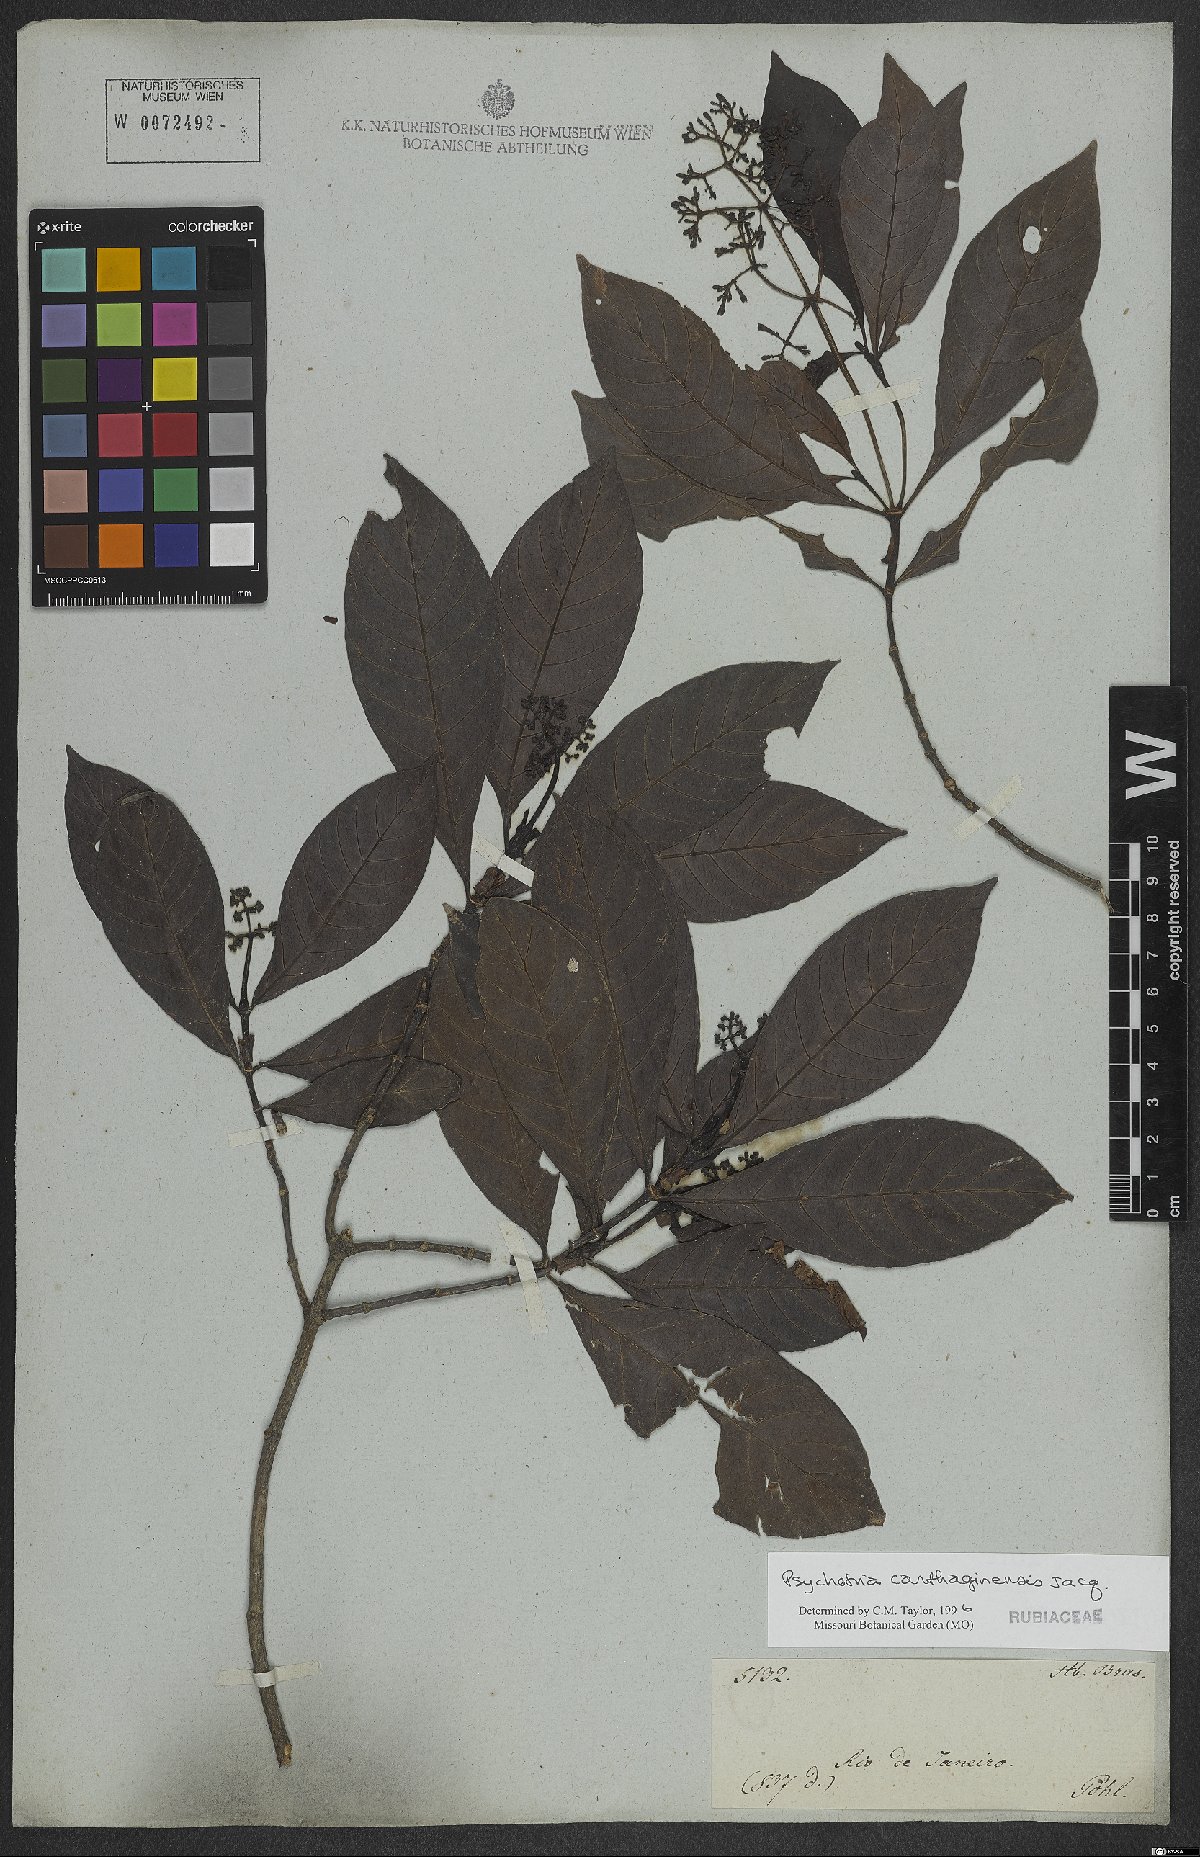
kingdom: Plantae
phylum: Tracheophyta
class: Magnoliopsida
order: Gentianales
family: Rubiaceae
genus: Psychotria
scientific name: Psychotria carthagenensis
